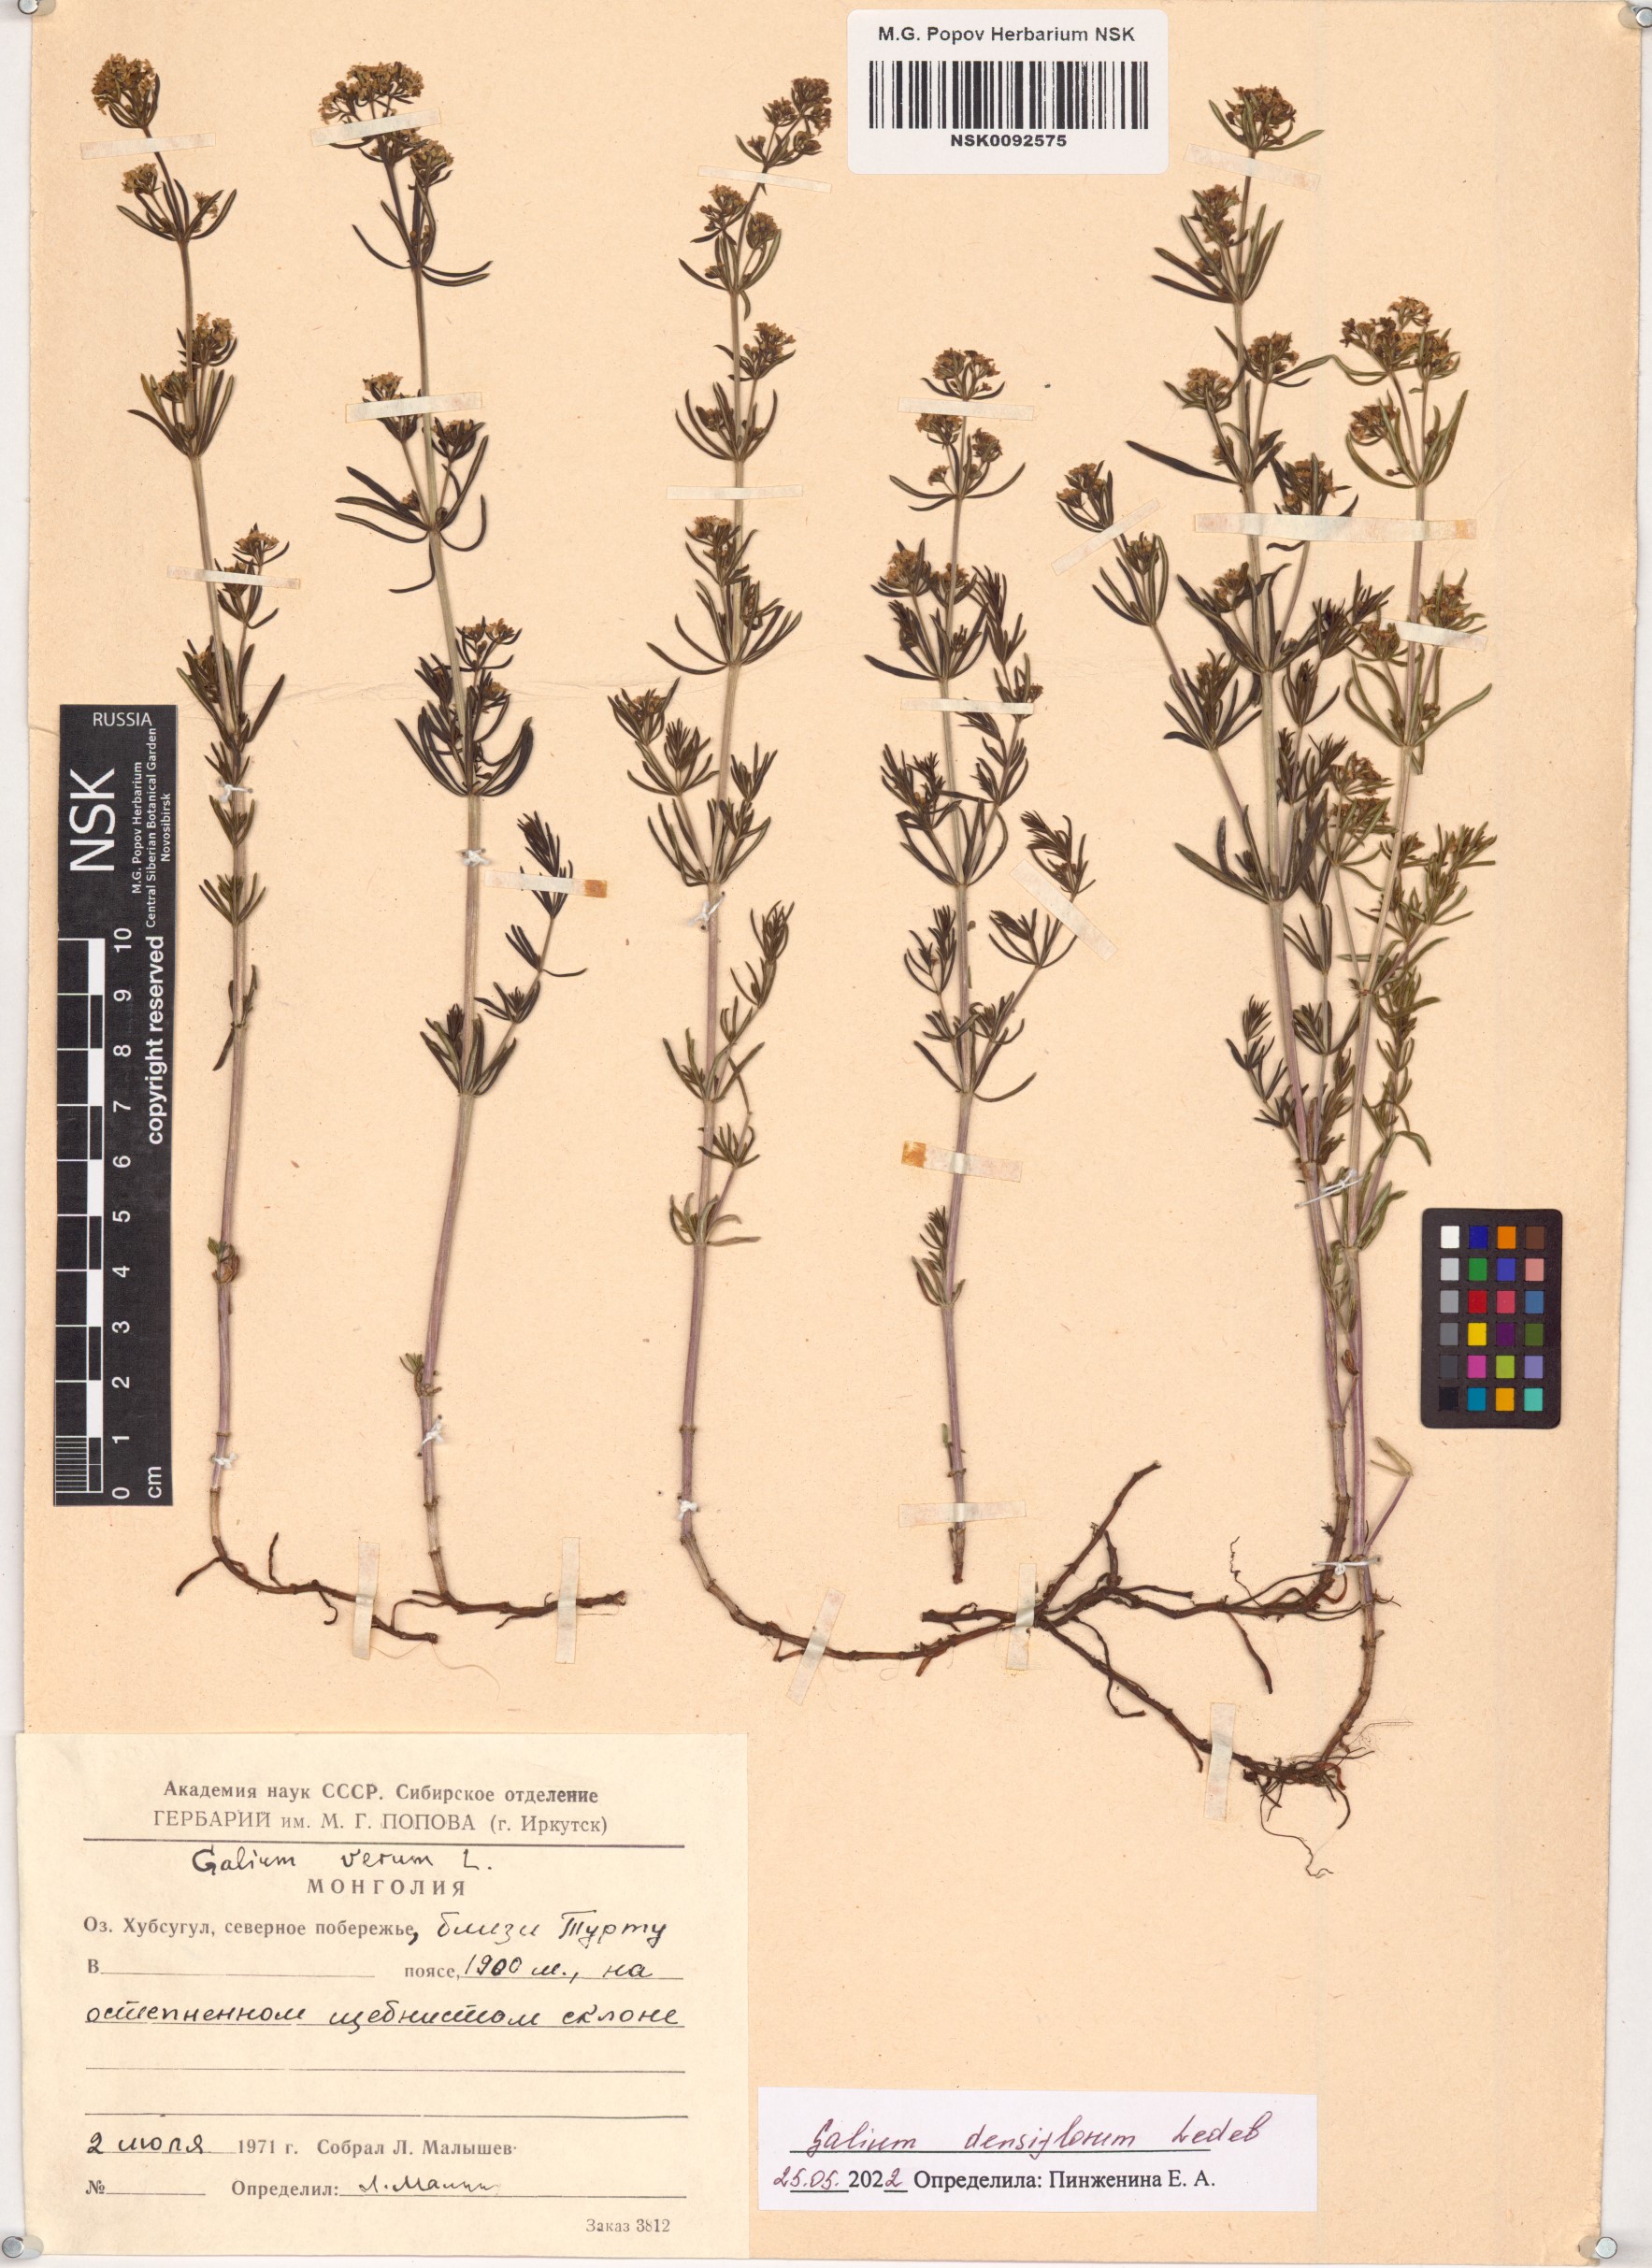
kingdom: Plantae
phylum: Tracheophyta
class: Magnoliopsida
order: Gentianales
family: Rubiaceae
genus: Galium
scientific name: Galium densiflorum
